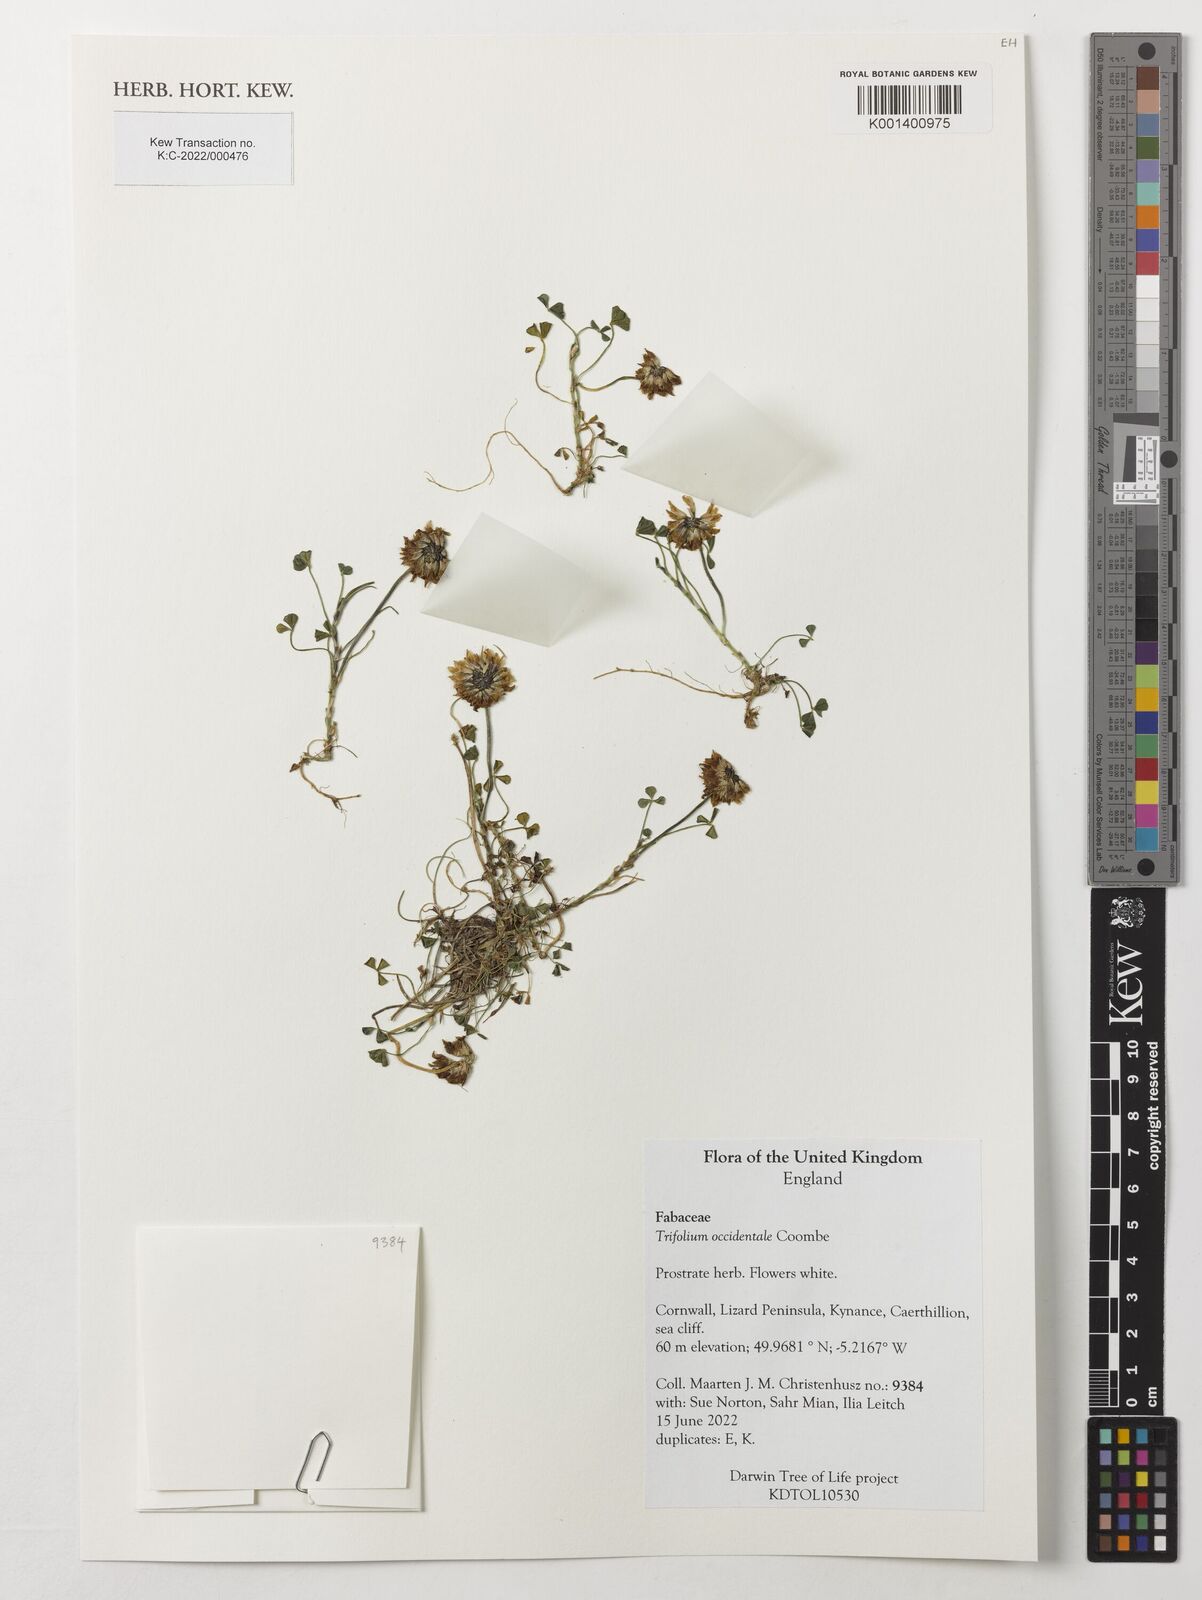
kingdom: Plantae
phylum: Tracheophyta
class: Magnoliopsida
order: Fabales
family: Fabaceae
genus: Trifolium
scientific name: Trifolium occidentale
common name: Western clover
